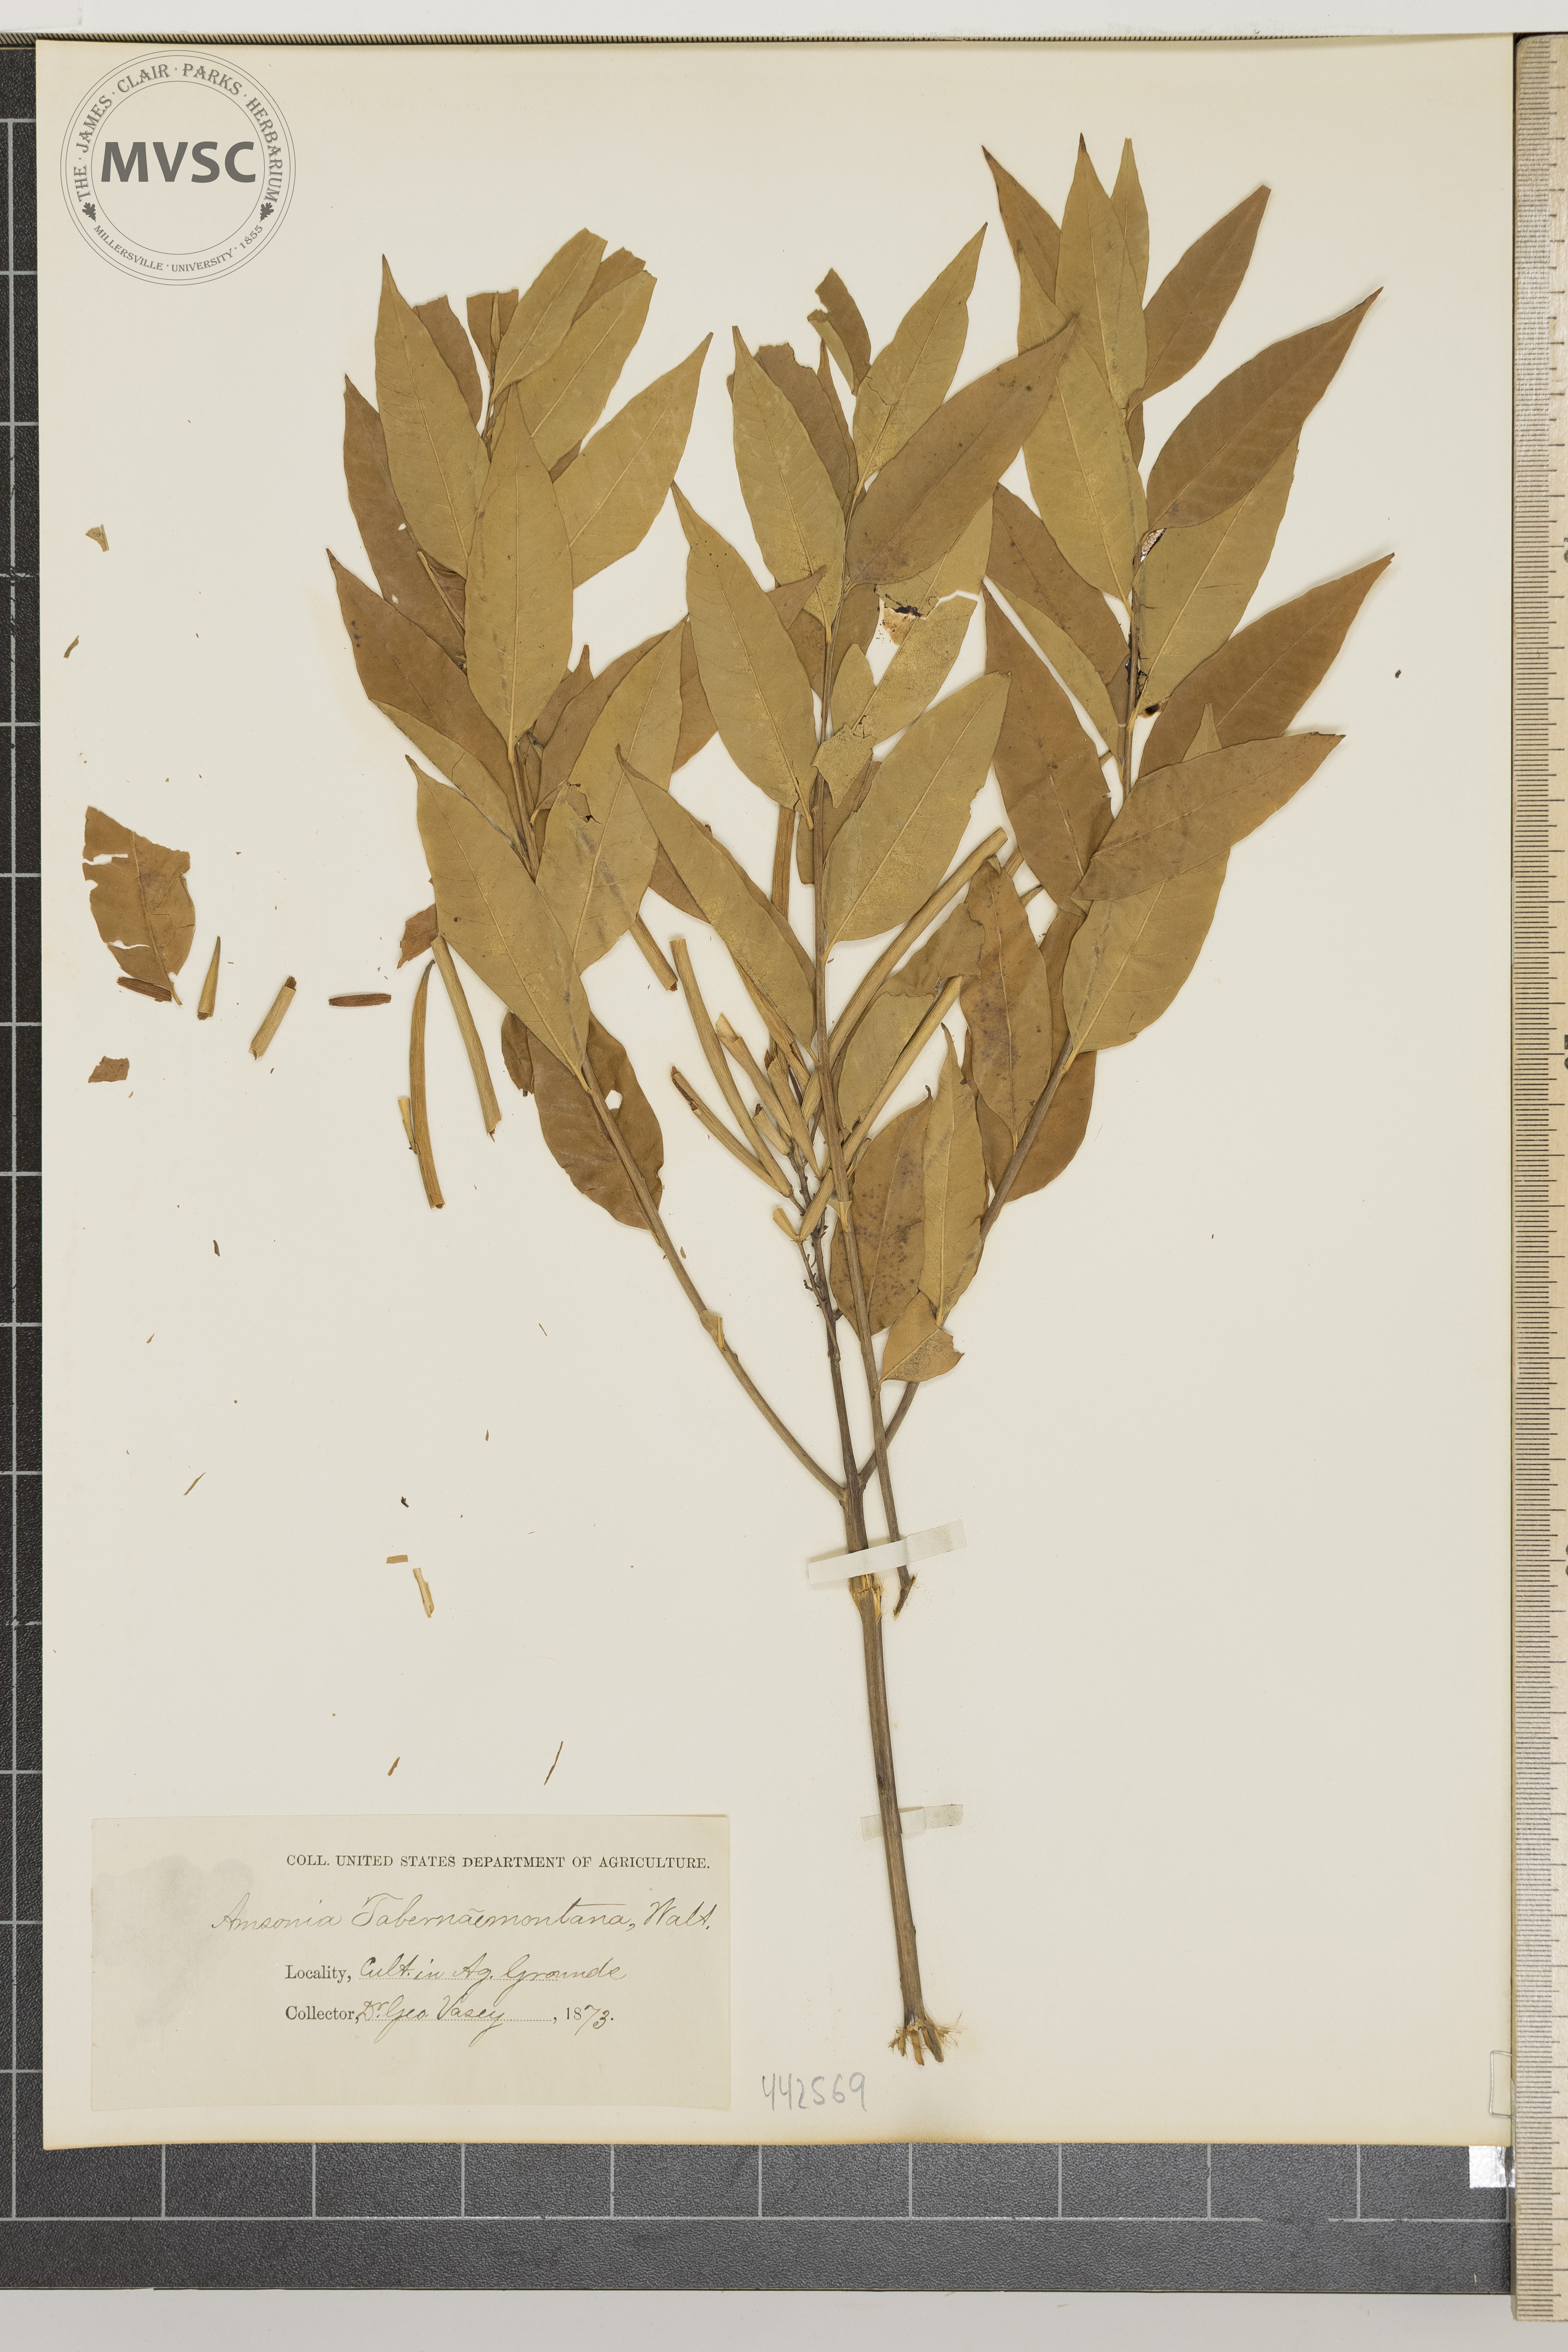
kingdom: Plantae
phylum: Tracheophyta
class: Magnoliopsida
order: Gentianales
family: Apocynaceae
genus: Amsonia
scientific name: Amsonia tabernaemontana
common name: Texas-star
